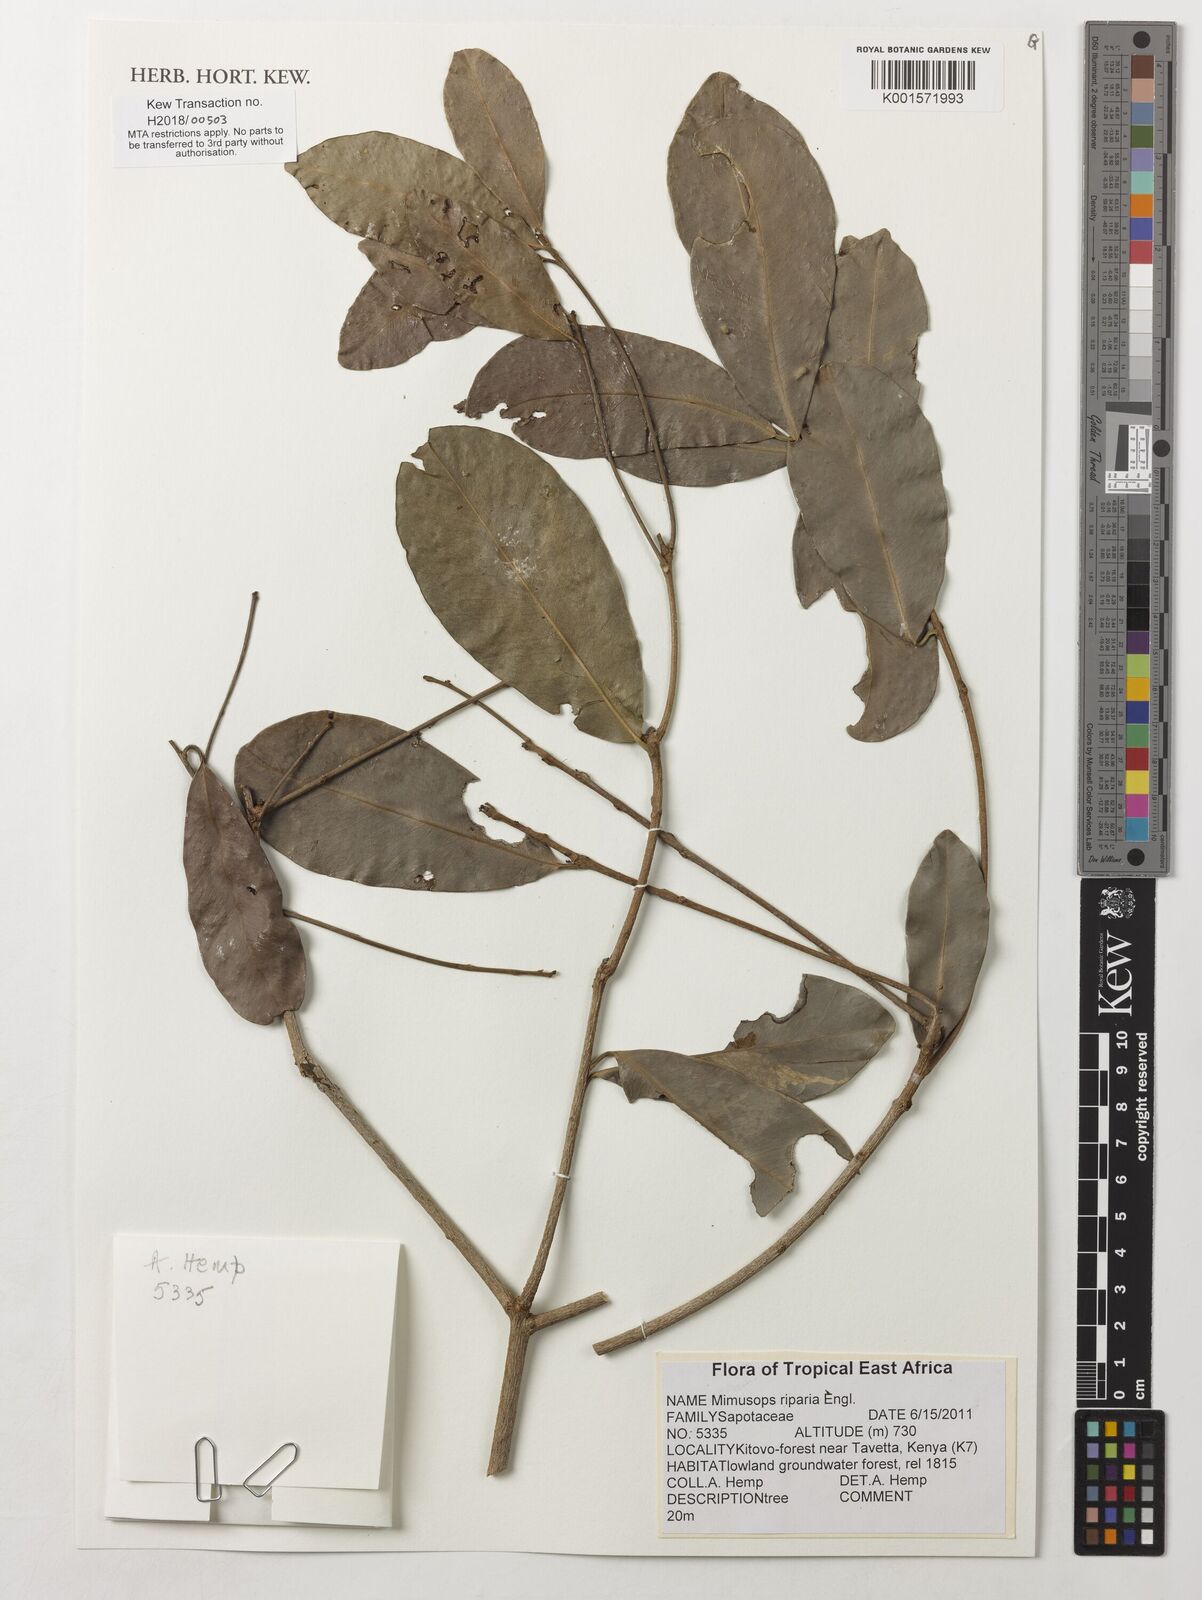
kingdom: Plantae
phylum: Tracheophyta
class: Magnoliopsida
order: Ericales
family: Sapotaceae
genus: Mimusops
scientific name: Mimusops riparia
